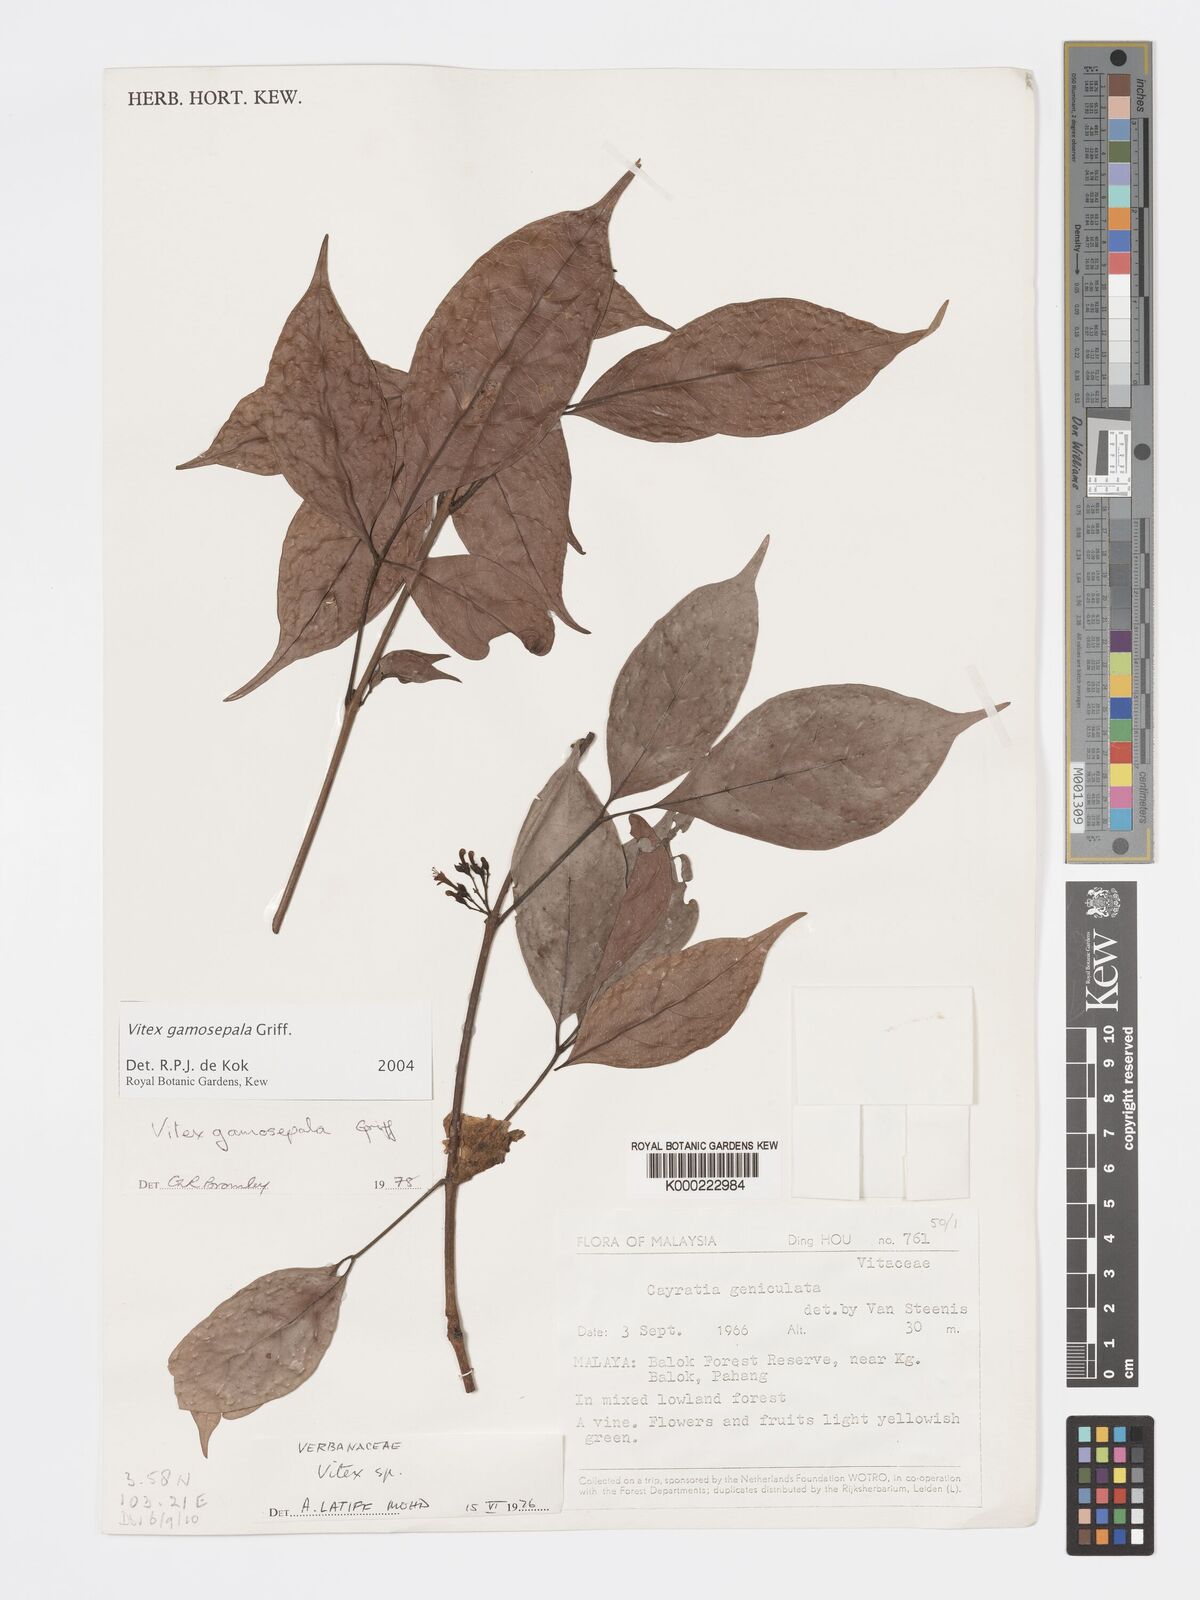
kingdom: Plantae
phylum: Tracheophyta
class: Magnoliopsida
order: Lamiales
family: Lamiaceae
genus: Vitex
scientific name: Vitex gamosepala
